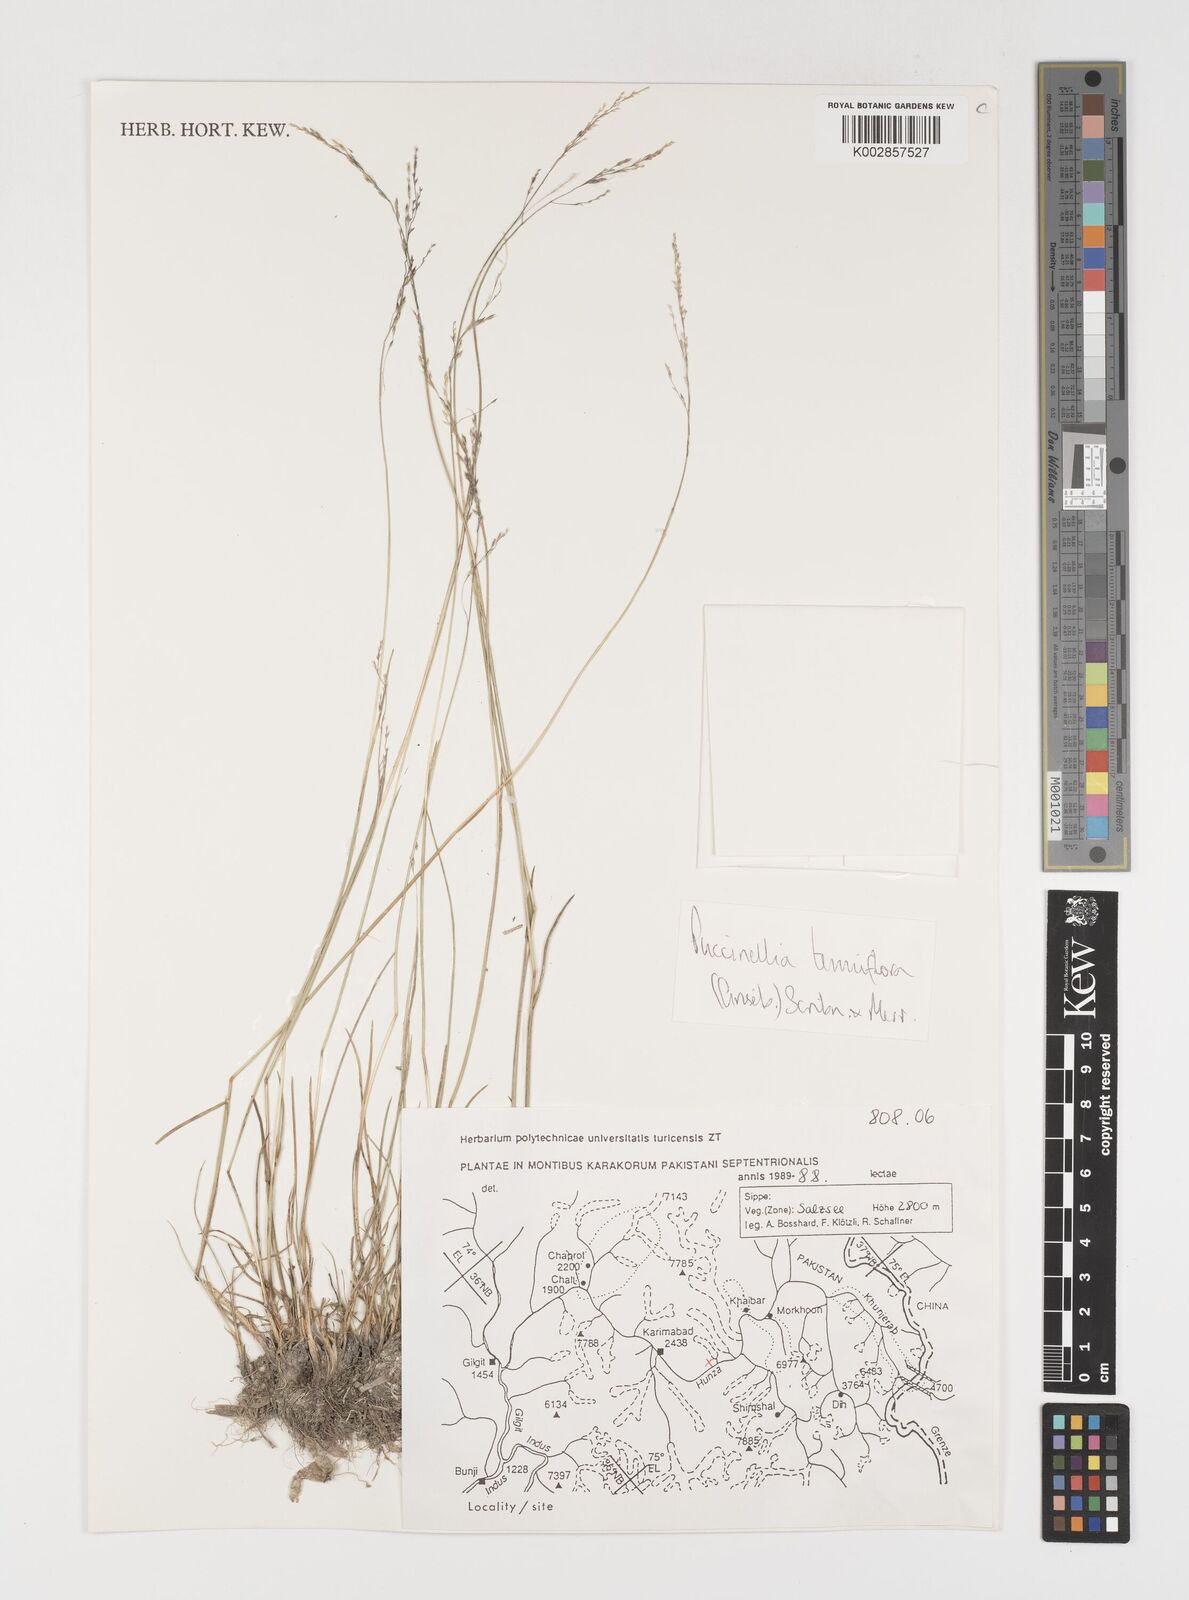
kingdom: Plantae
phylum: Tracheophyta
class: Liliopsida
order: Poales
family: Poaceae
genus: Puccinellia
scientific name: Puccinellia tenuiflora
